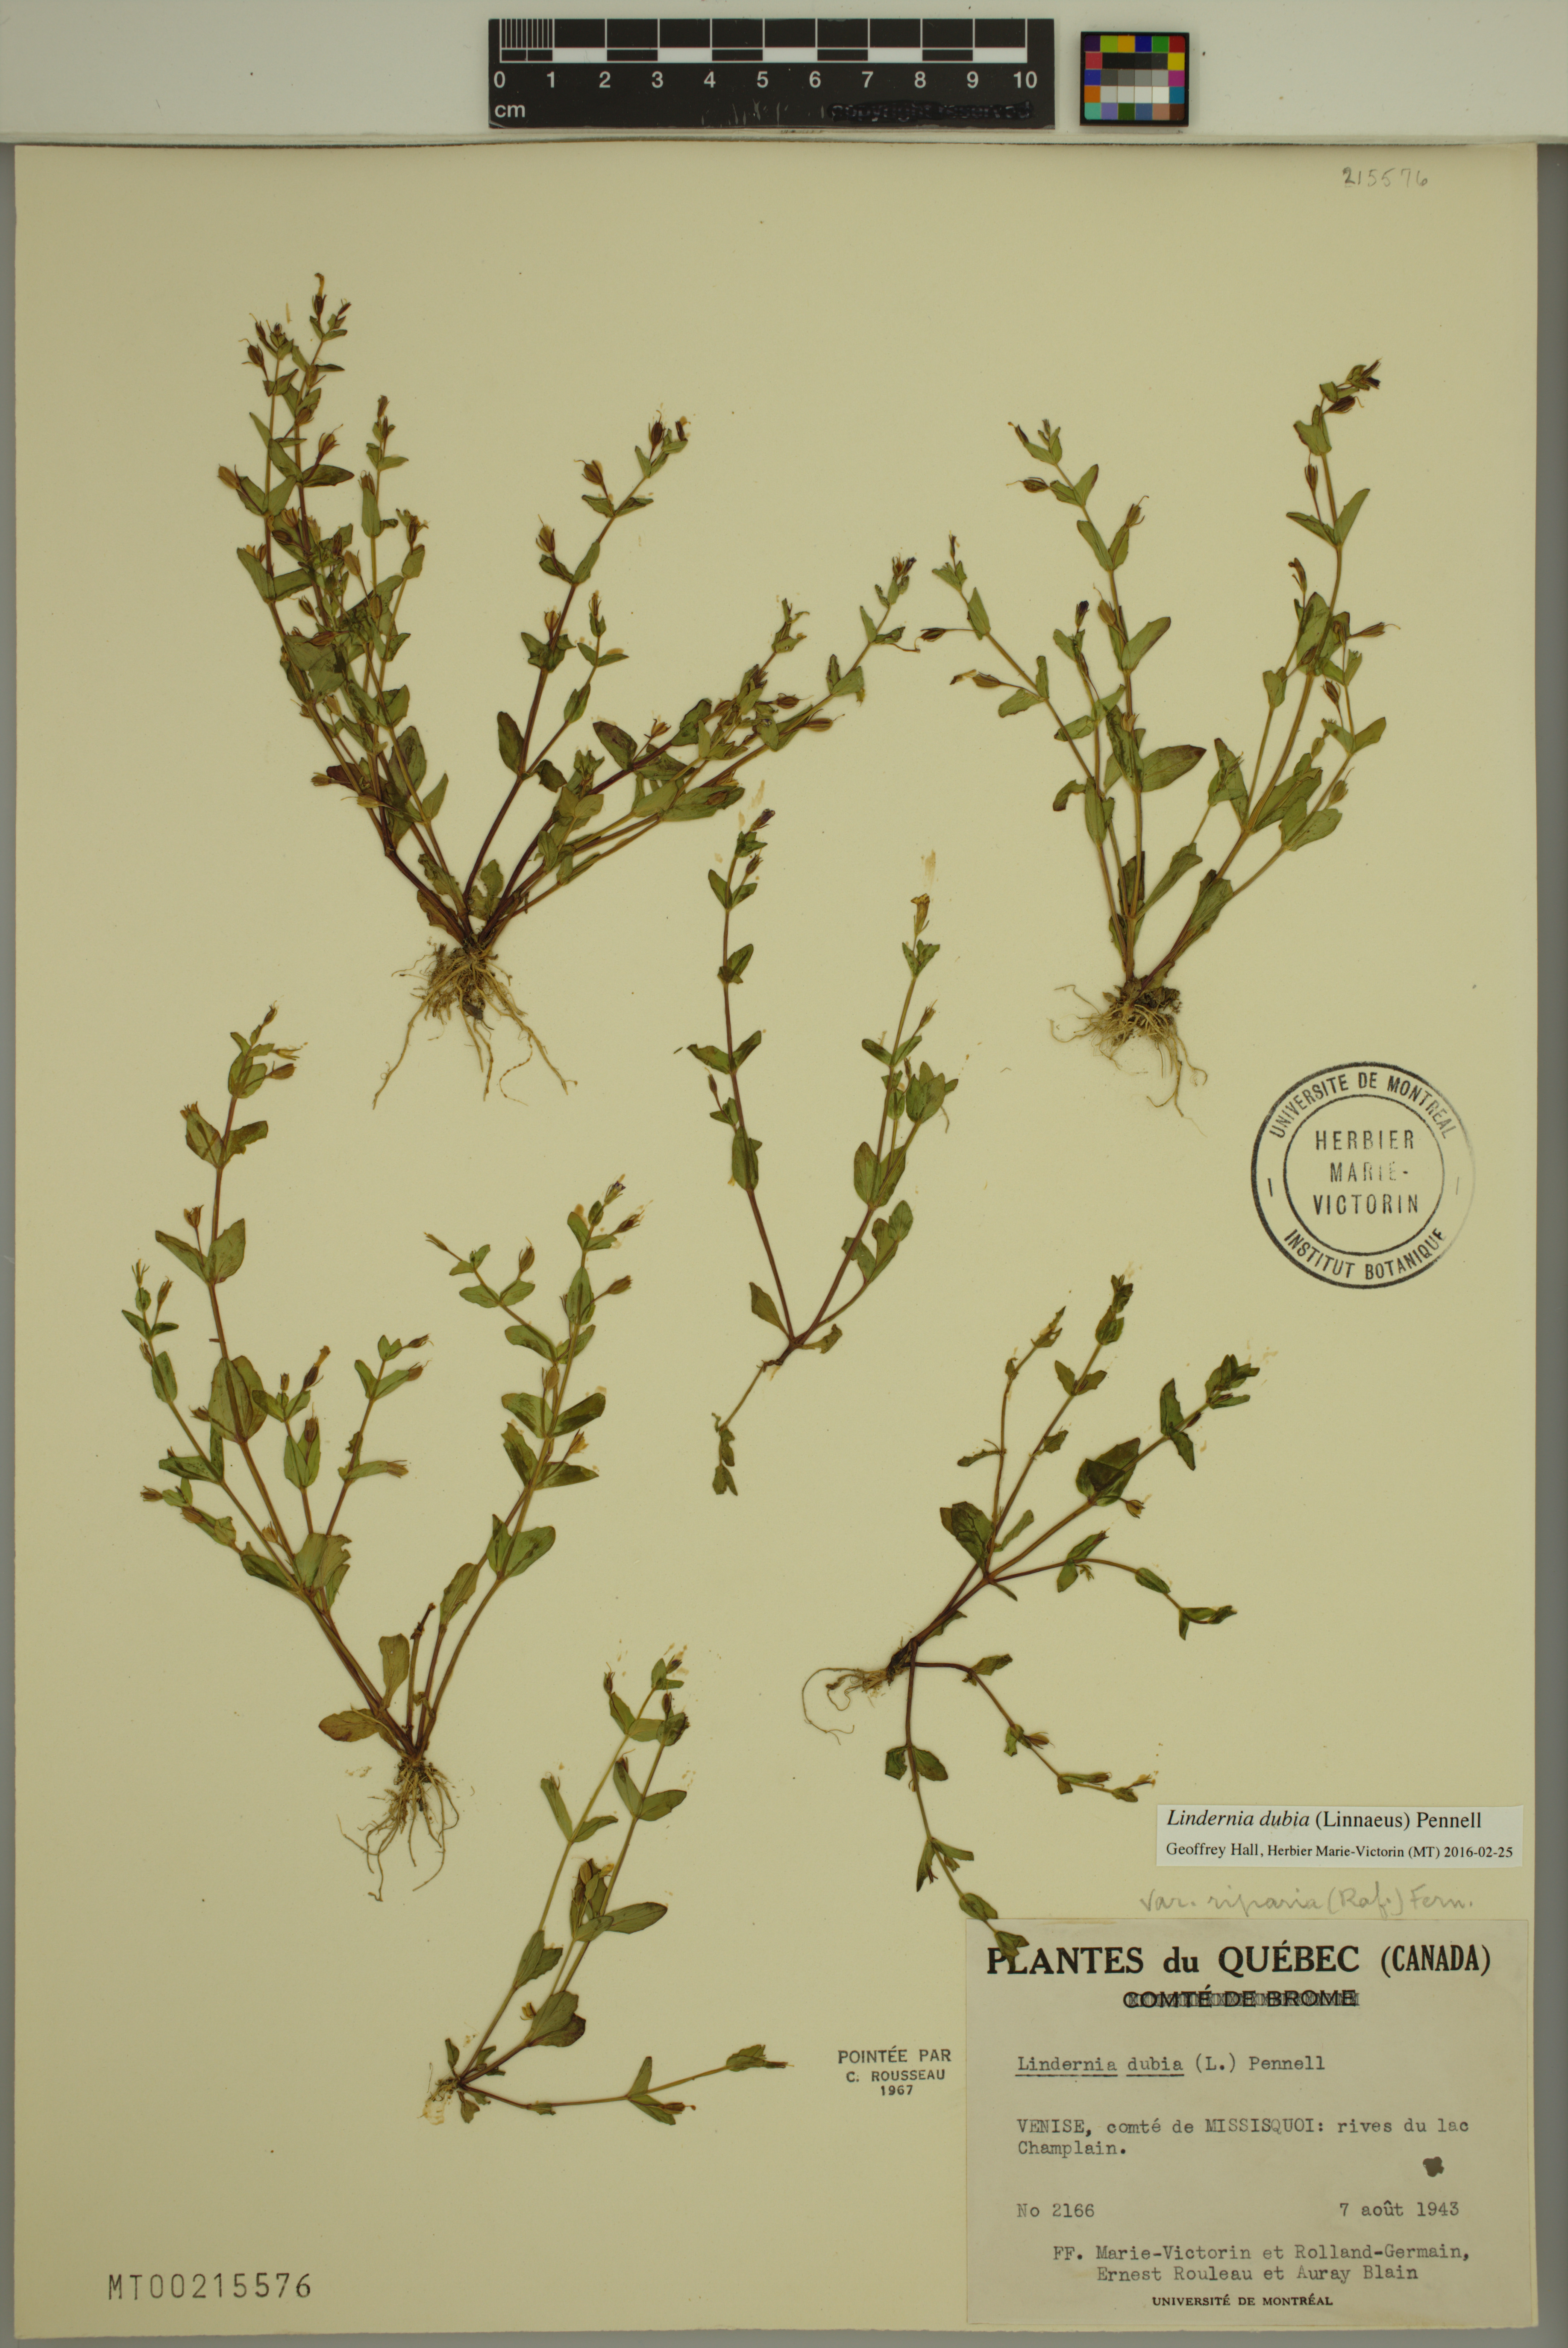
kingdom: Plantae
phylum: Tracheophyta
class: Magnoliopsida
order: Lamiales
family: Linderniaceae
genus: Lindernia
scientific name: Lindernia dubia
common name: Annual false pimpernel
